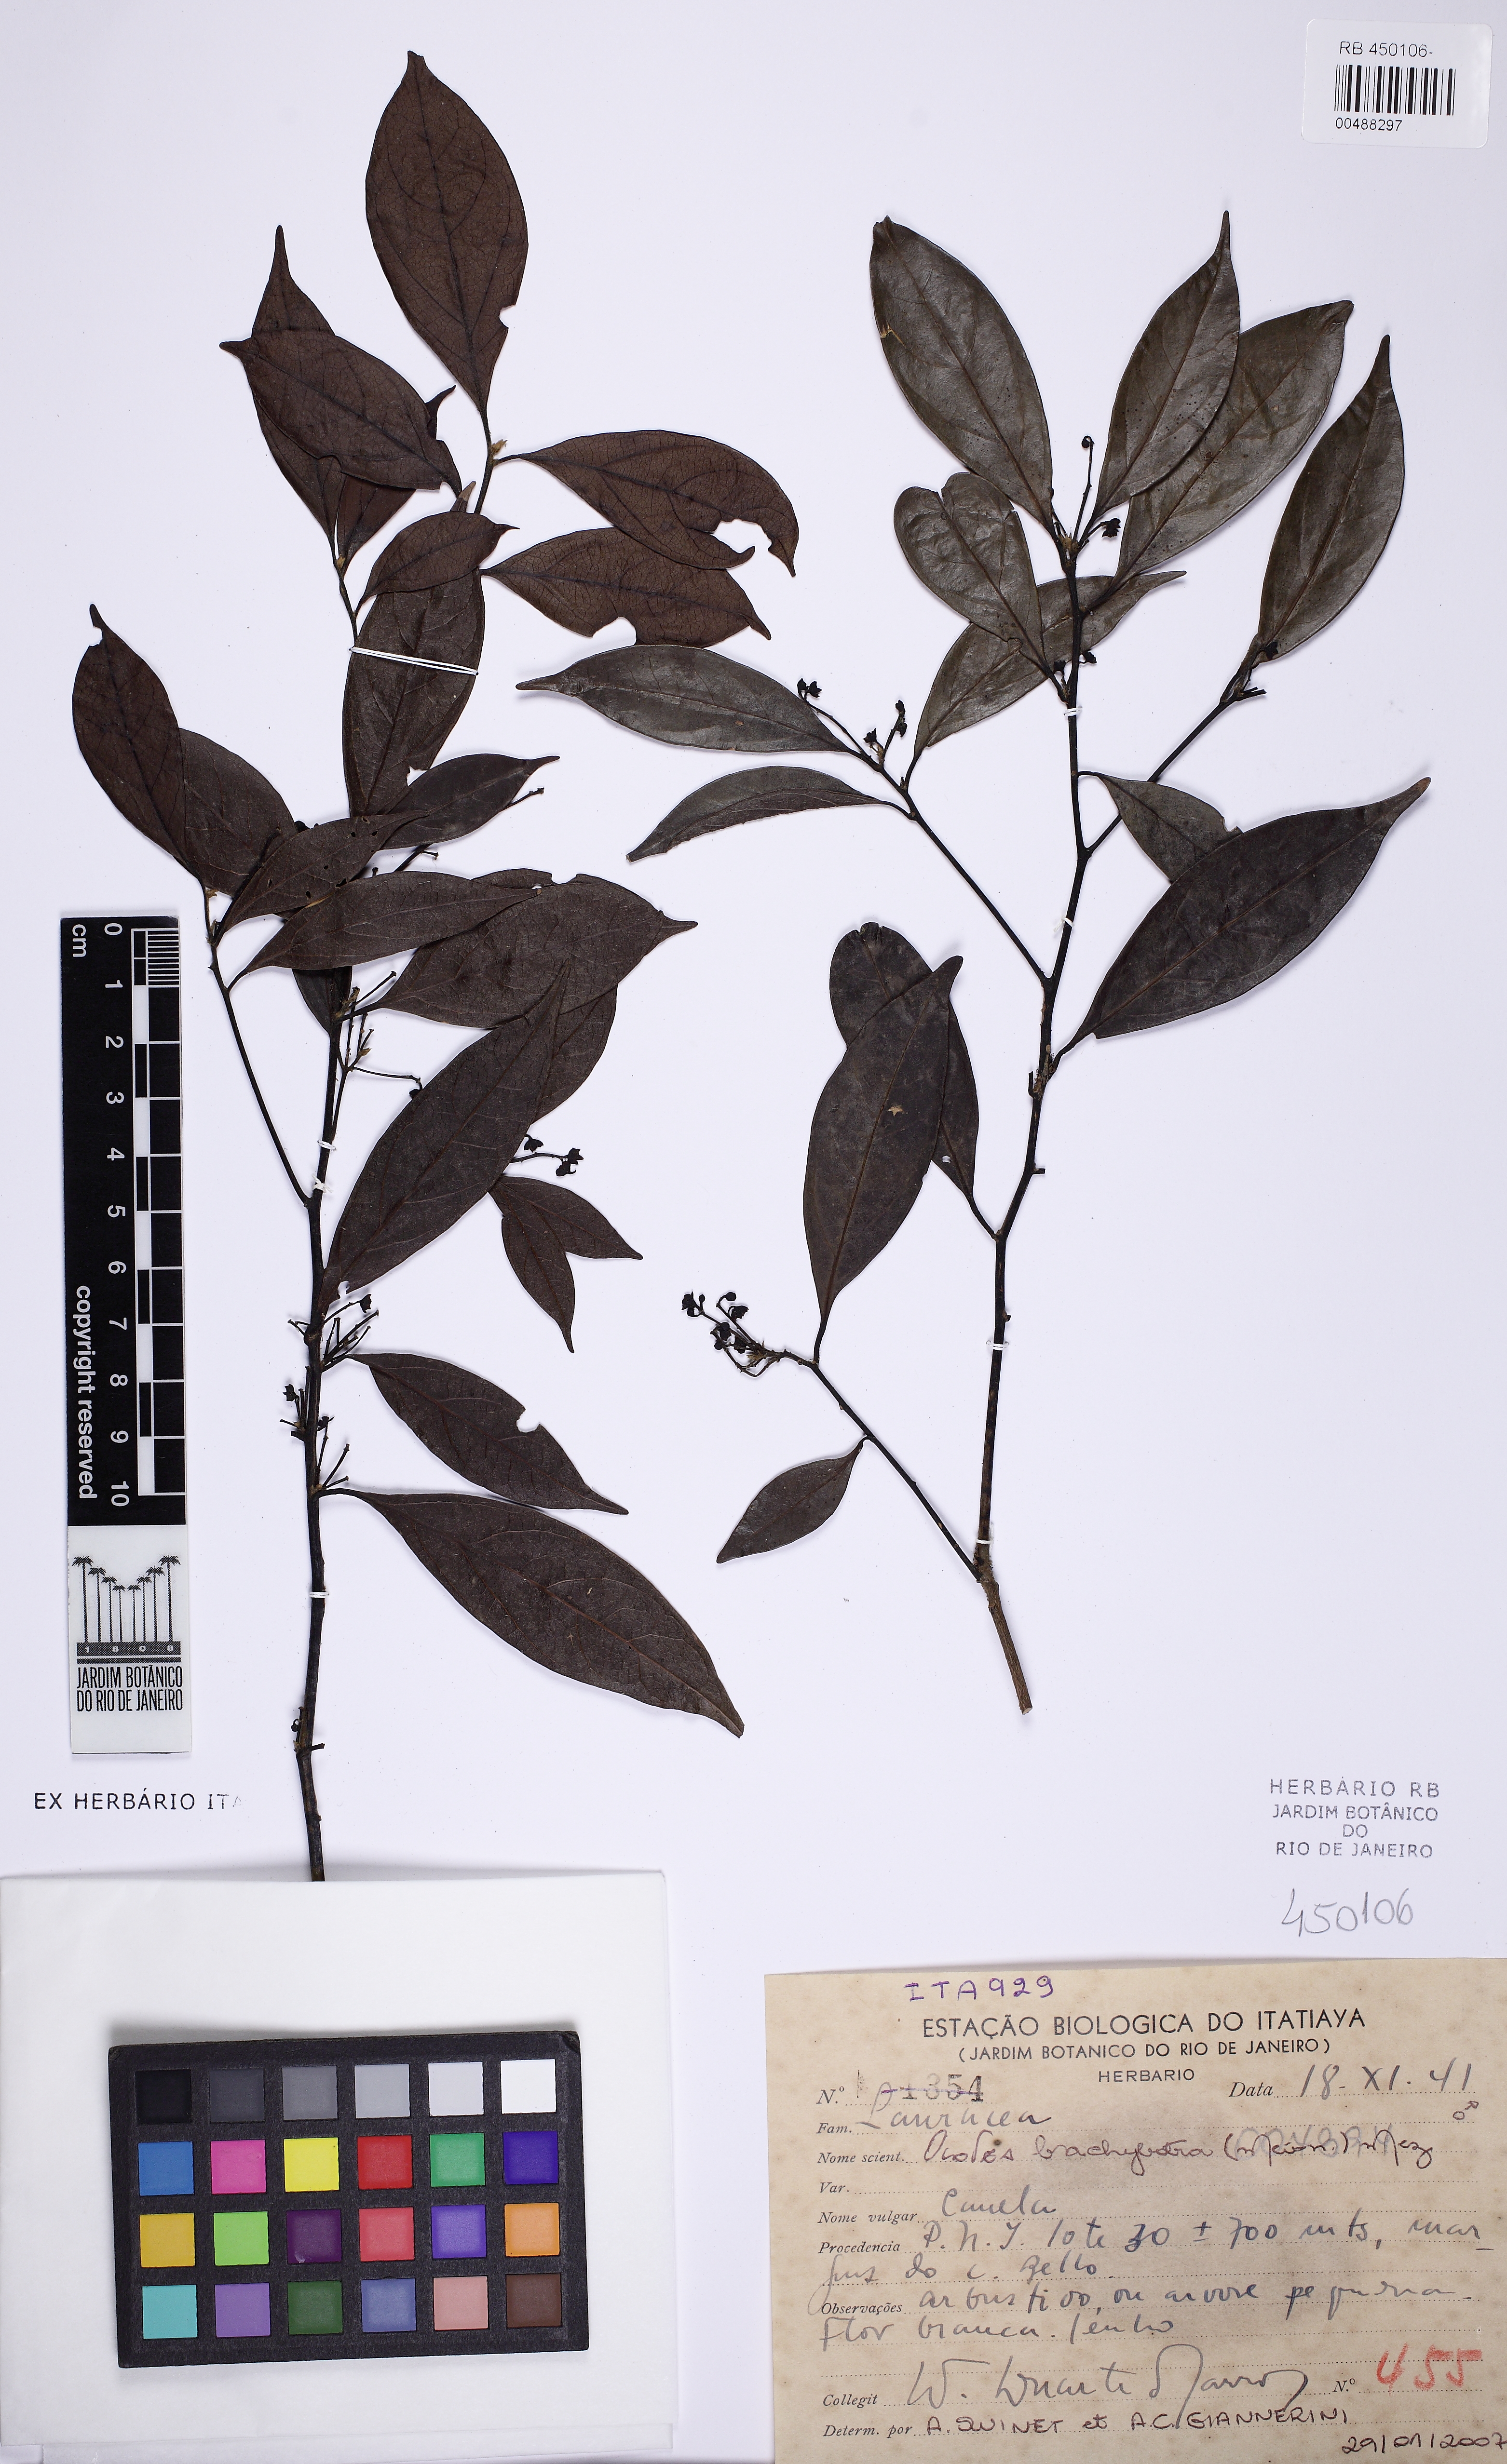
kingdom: Plantae
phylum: Tracheophyta
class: Magnoliopsida
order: Laurales
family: Lauraceae
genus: Ocotea
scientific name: Ocotea brachybotra
